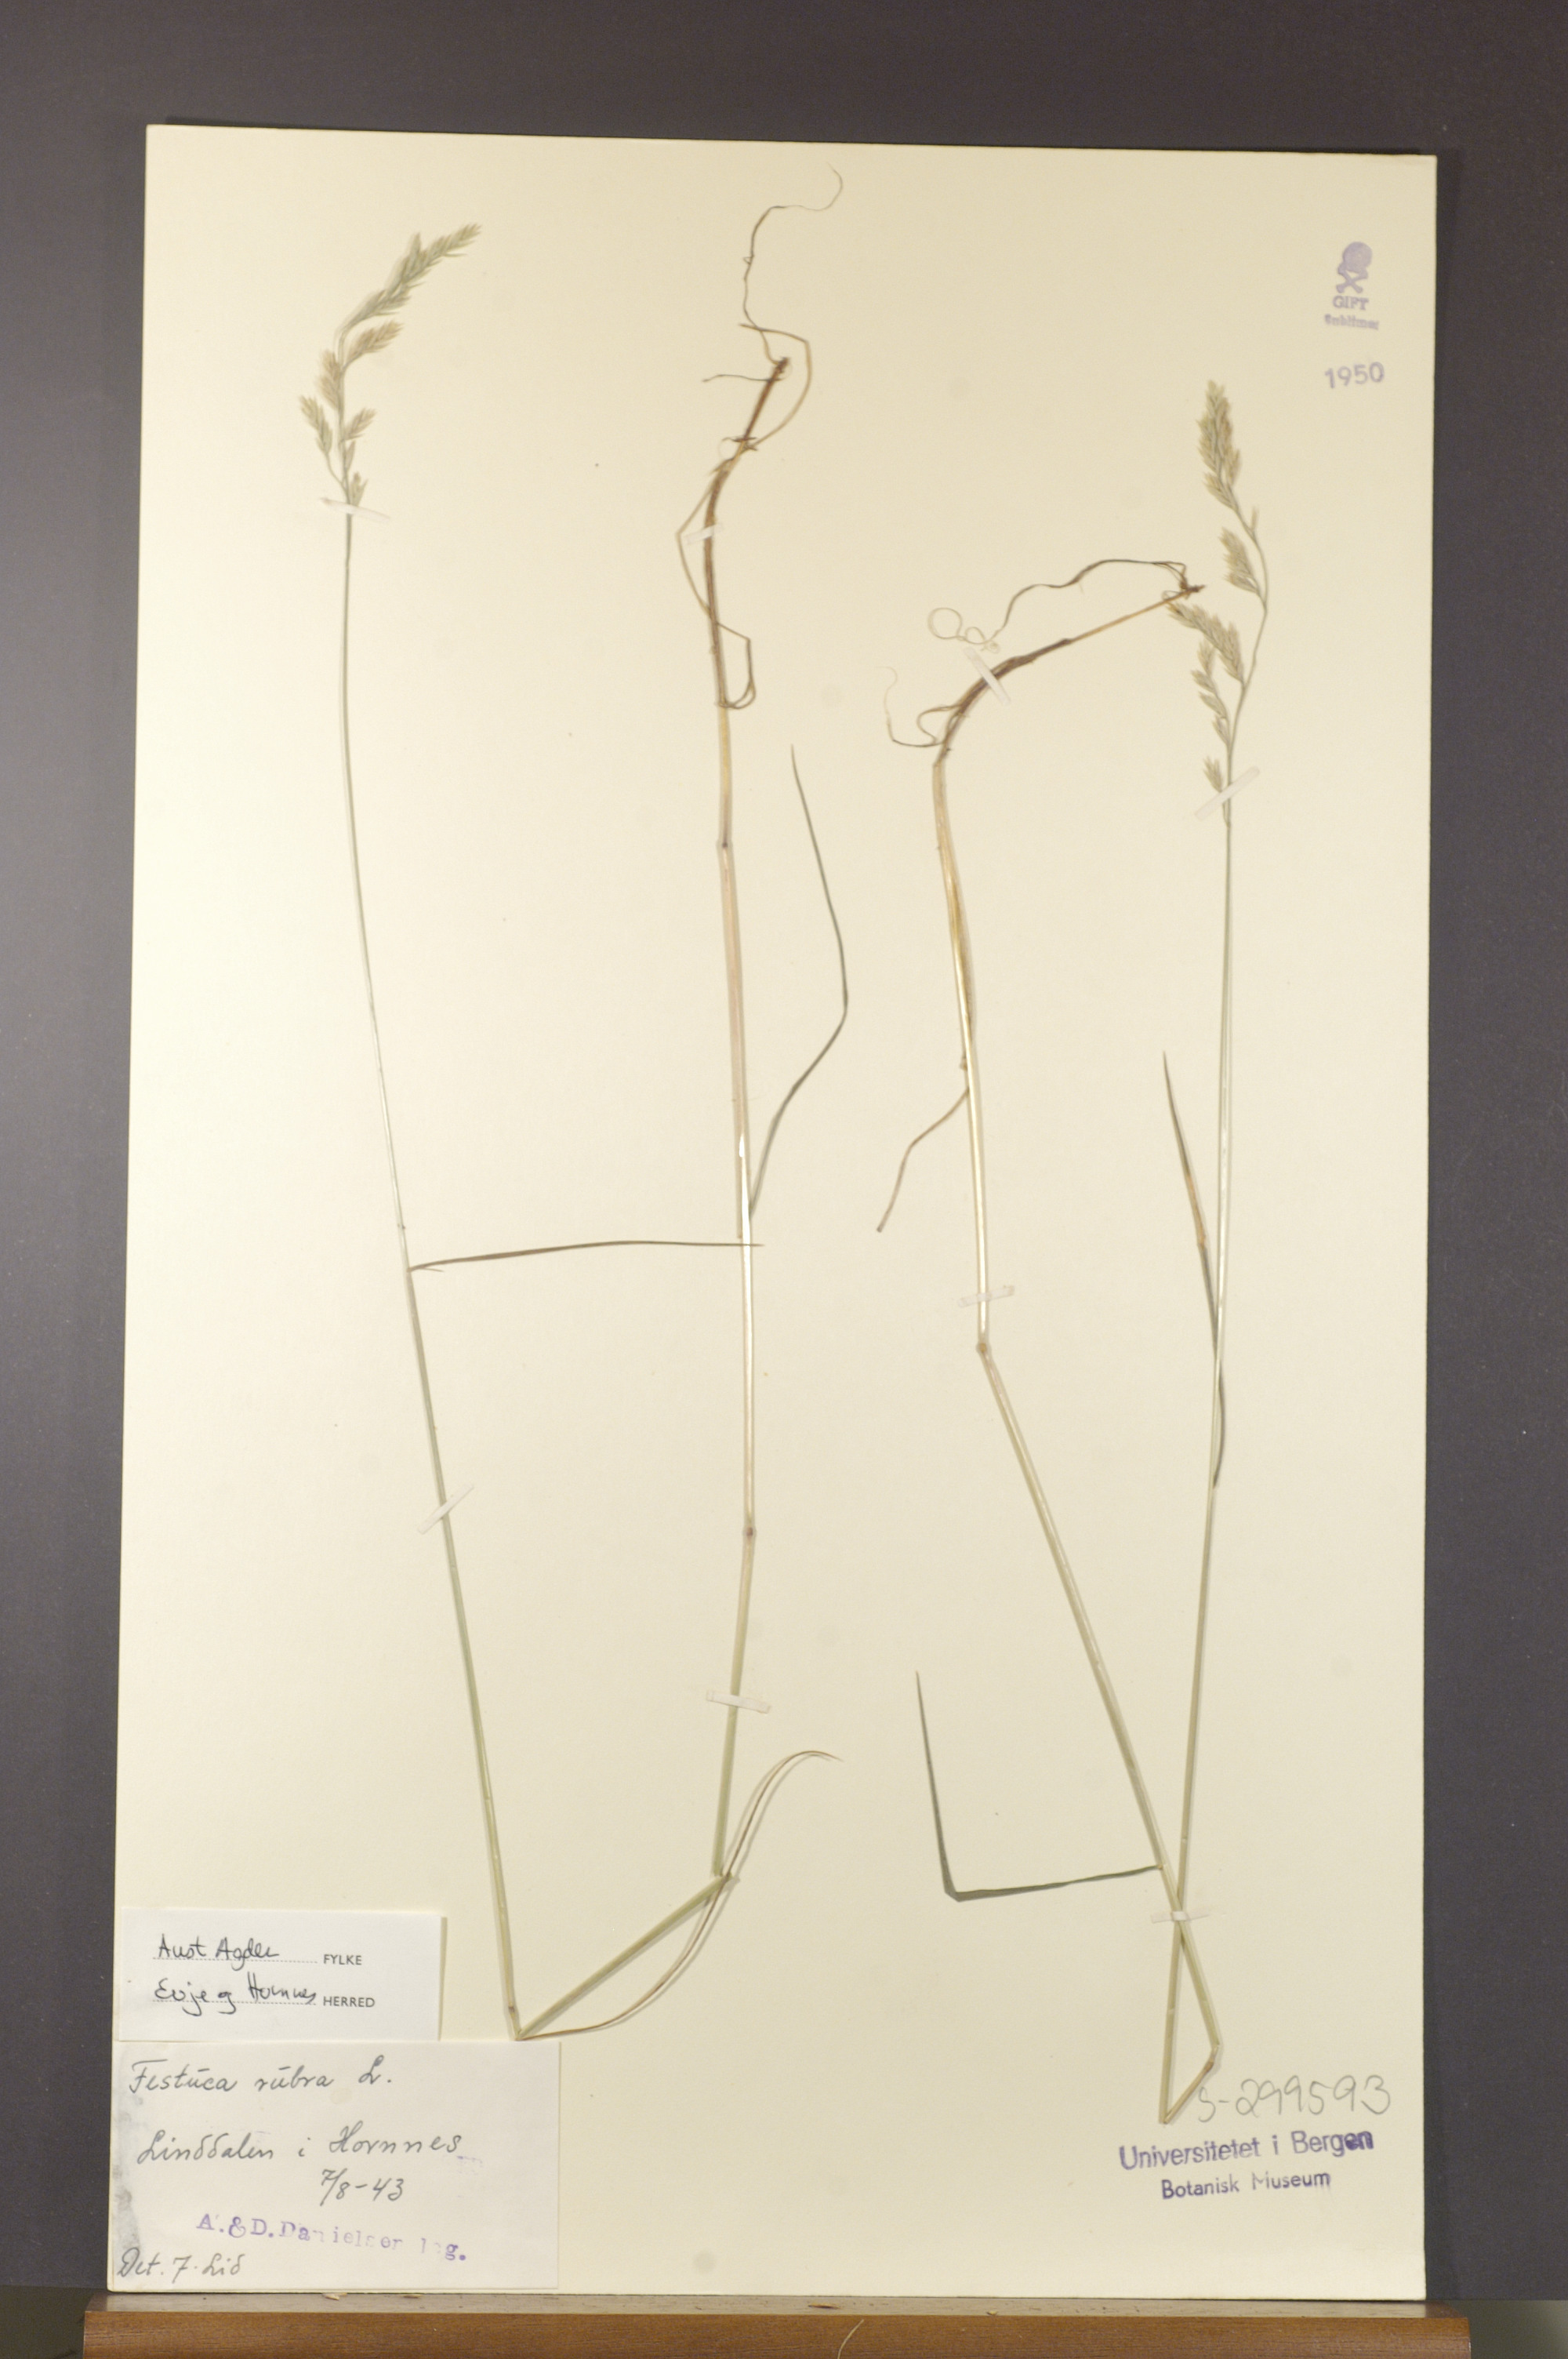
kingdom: Plantae
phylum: Tracheophyta
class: Liliopsida
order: Poales
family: Poaceae
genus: Festuca
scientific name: Festuca rubra
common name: Red fescue
